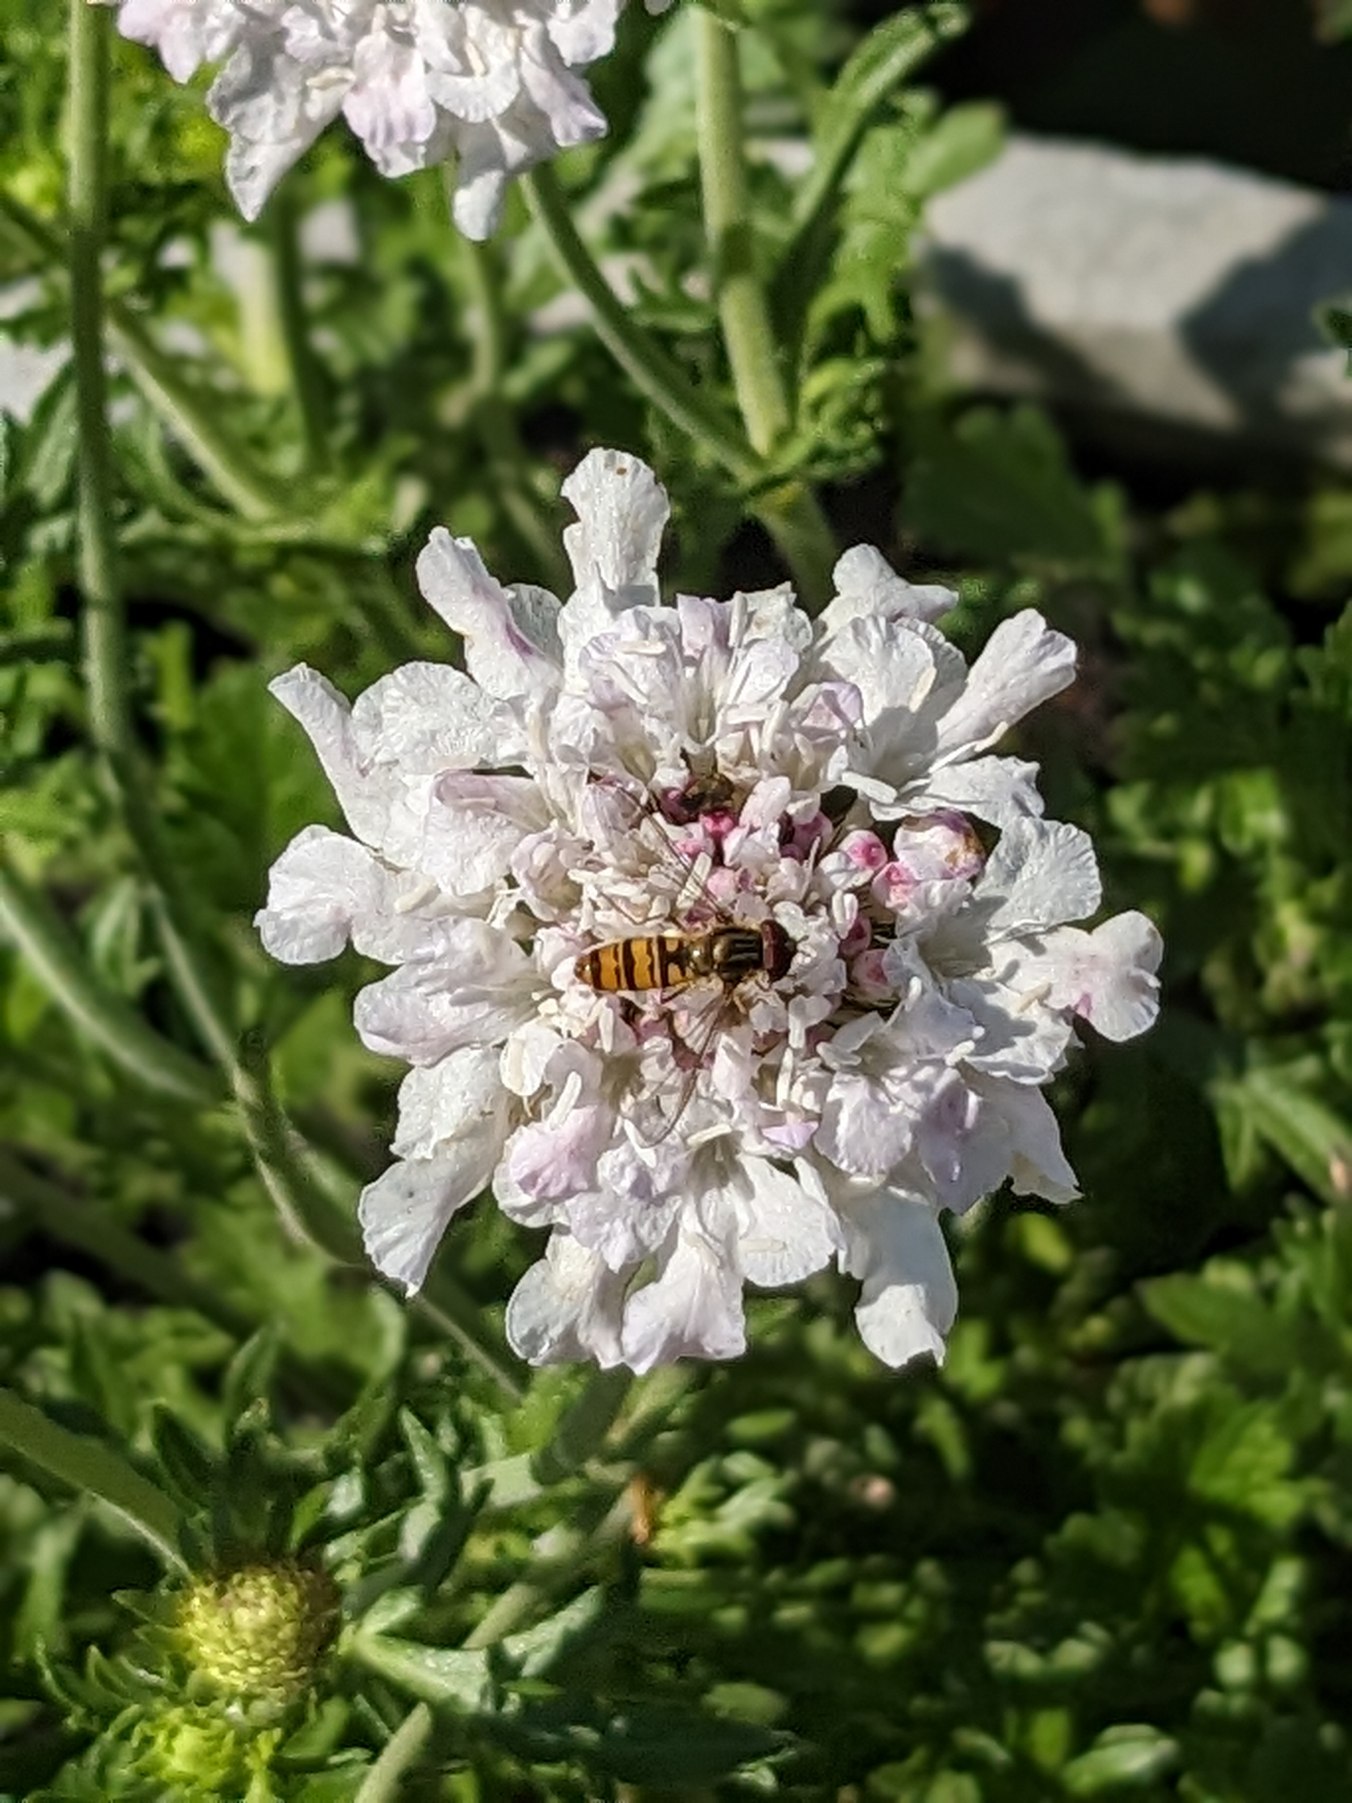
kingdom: Animalia
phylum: Arthropoda
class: Insecta
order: Diptera
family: Syrphidae
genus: Episyrphus
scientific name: Episyrphus balteatus
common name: Dobbeltbåndet svirreflue
